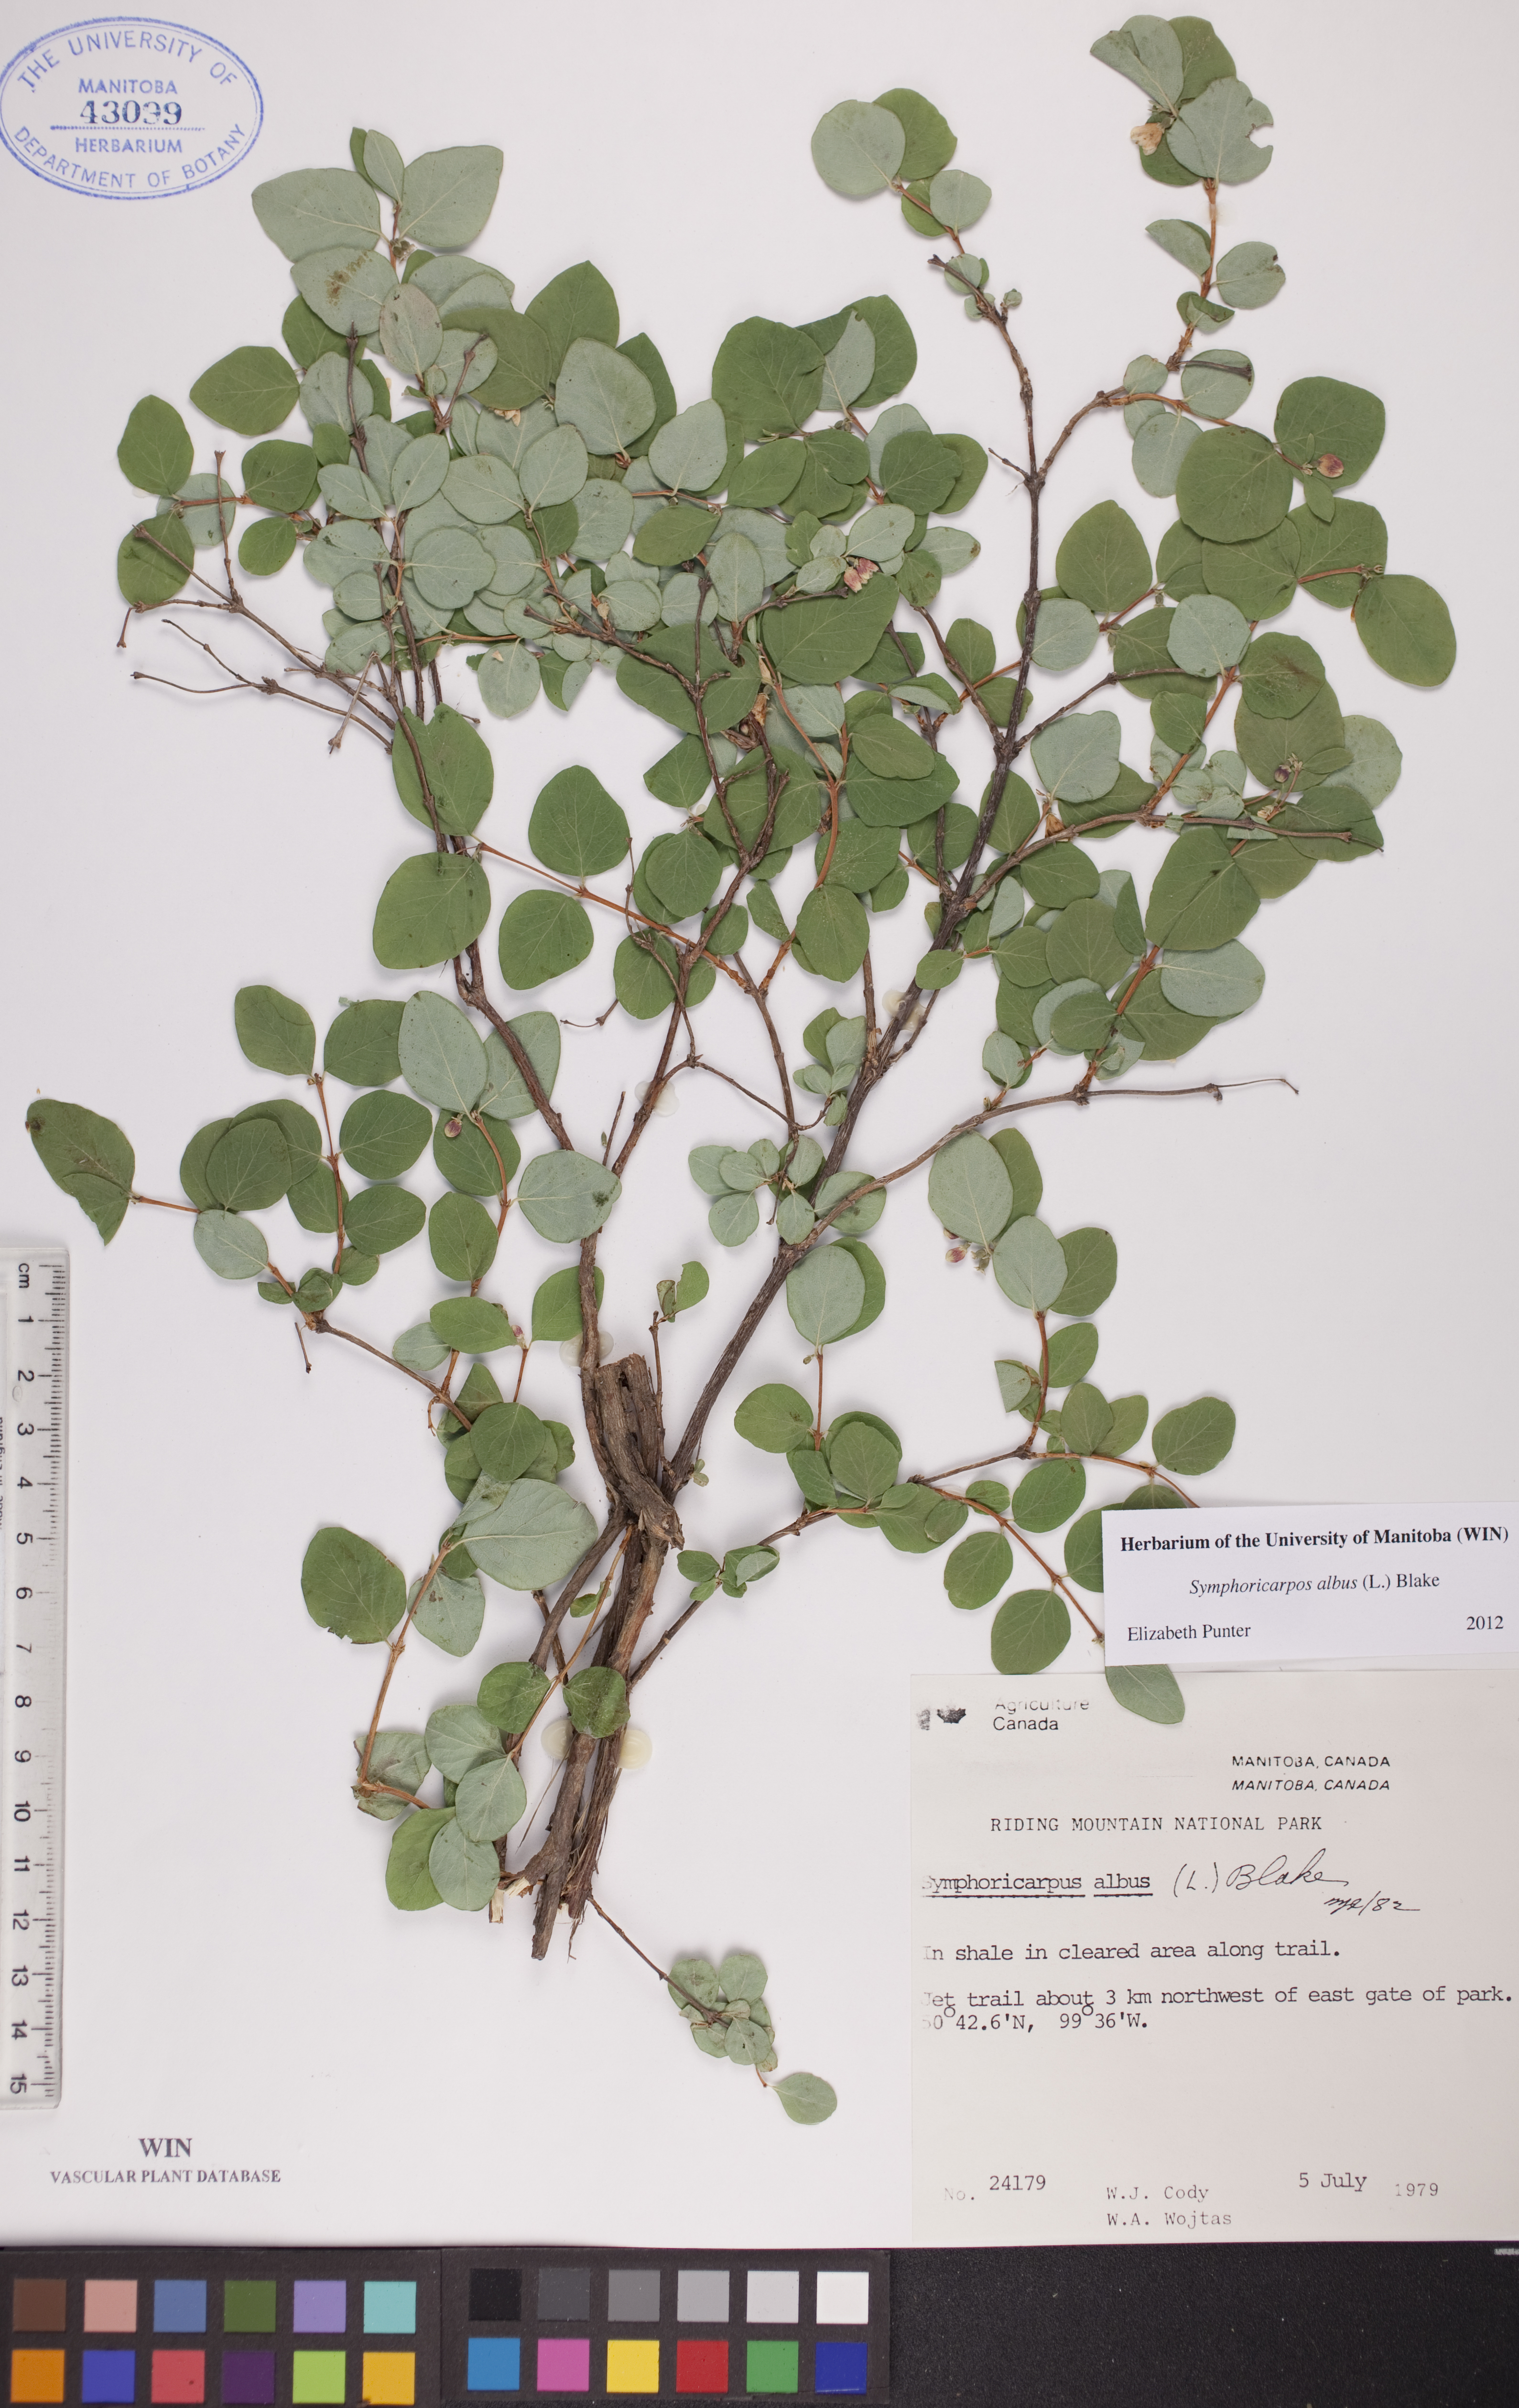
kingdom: Plantae
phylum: Tracheophyta
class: Magnoliopsida
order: Dipsacales
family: Caprifoliaceae
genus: Symphoricarpos
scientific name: Symphoricarpos albus
